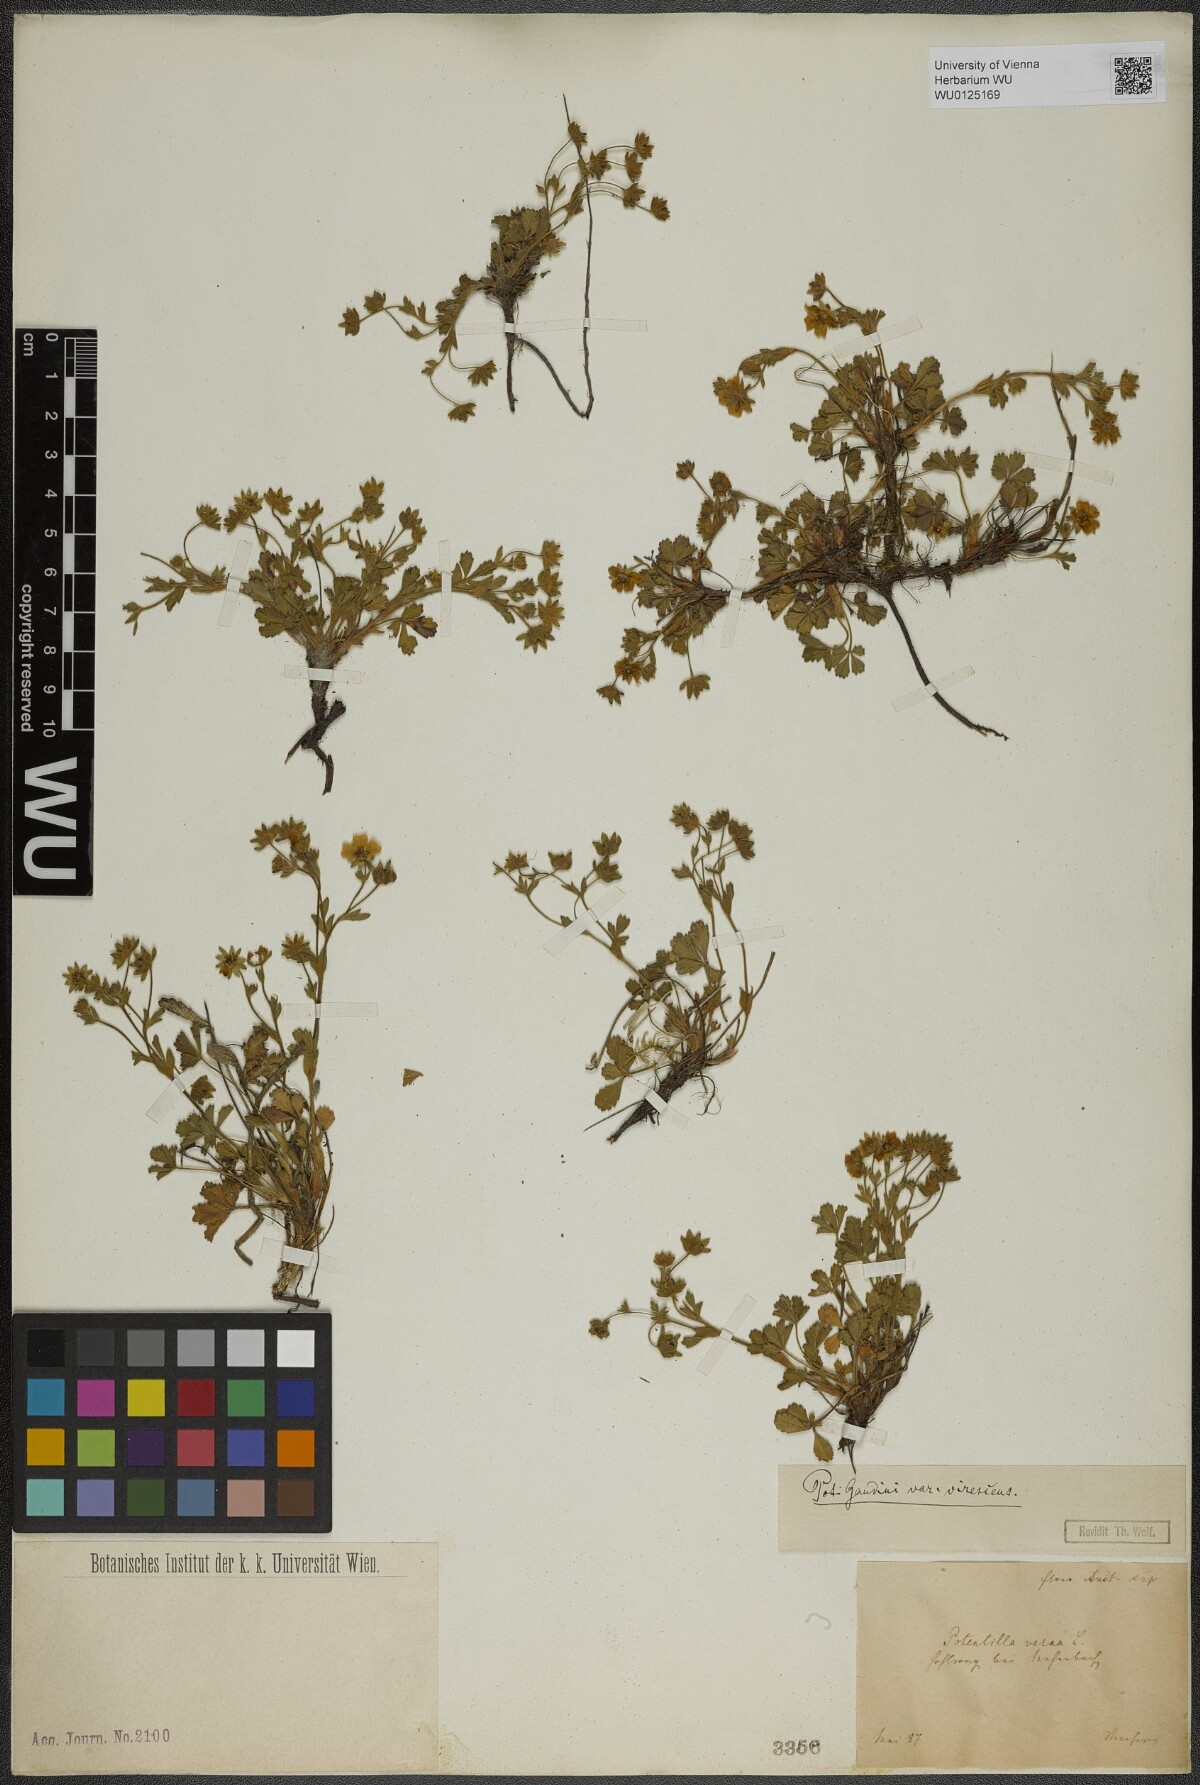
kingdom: Plantae
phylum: Tracheophyta
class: Magnoliopsida
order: Rosales
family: Rosaceae
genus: Potentilla
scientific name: Potentilla pusilla
